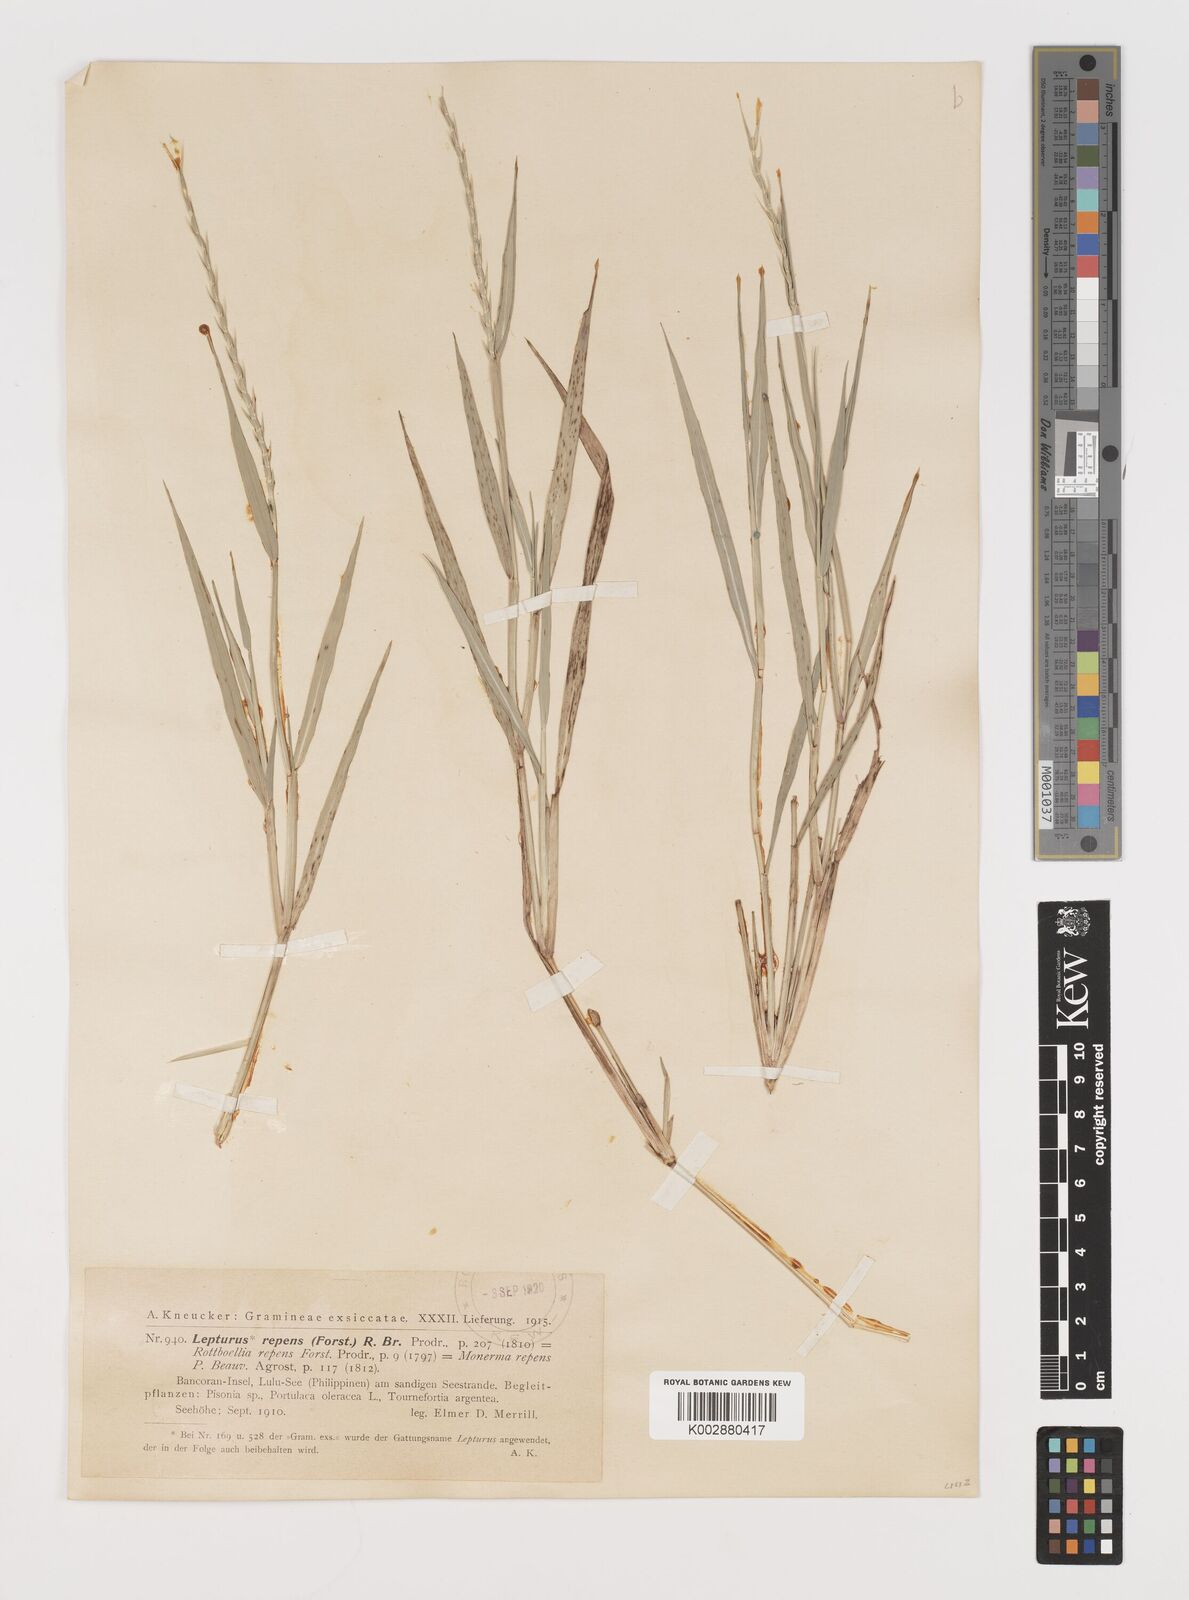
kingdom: Plantae
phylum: Tracheophyta
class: Liliopsida
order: Poales
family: Poaceae
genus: Lepturus
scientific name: Lepturus repens
